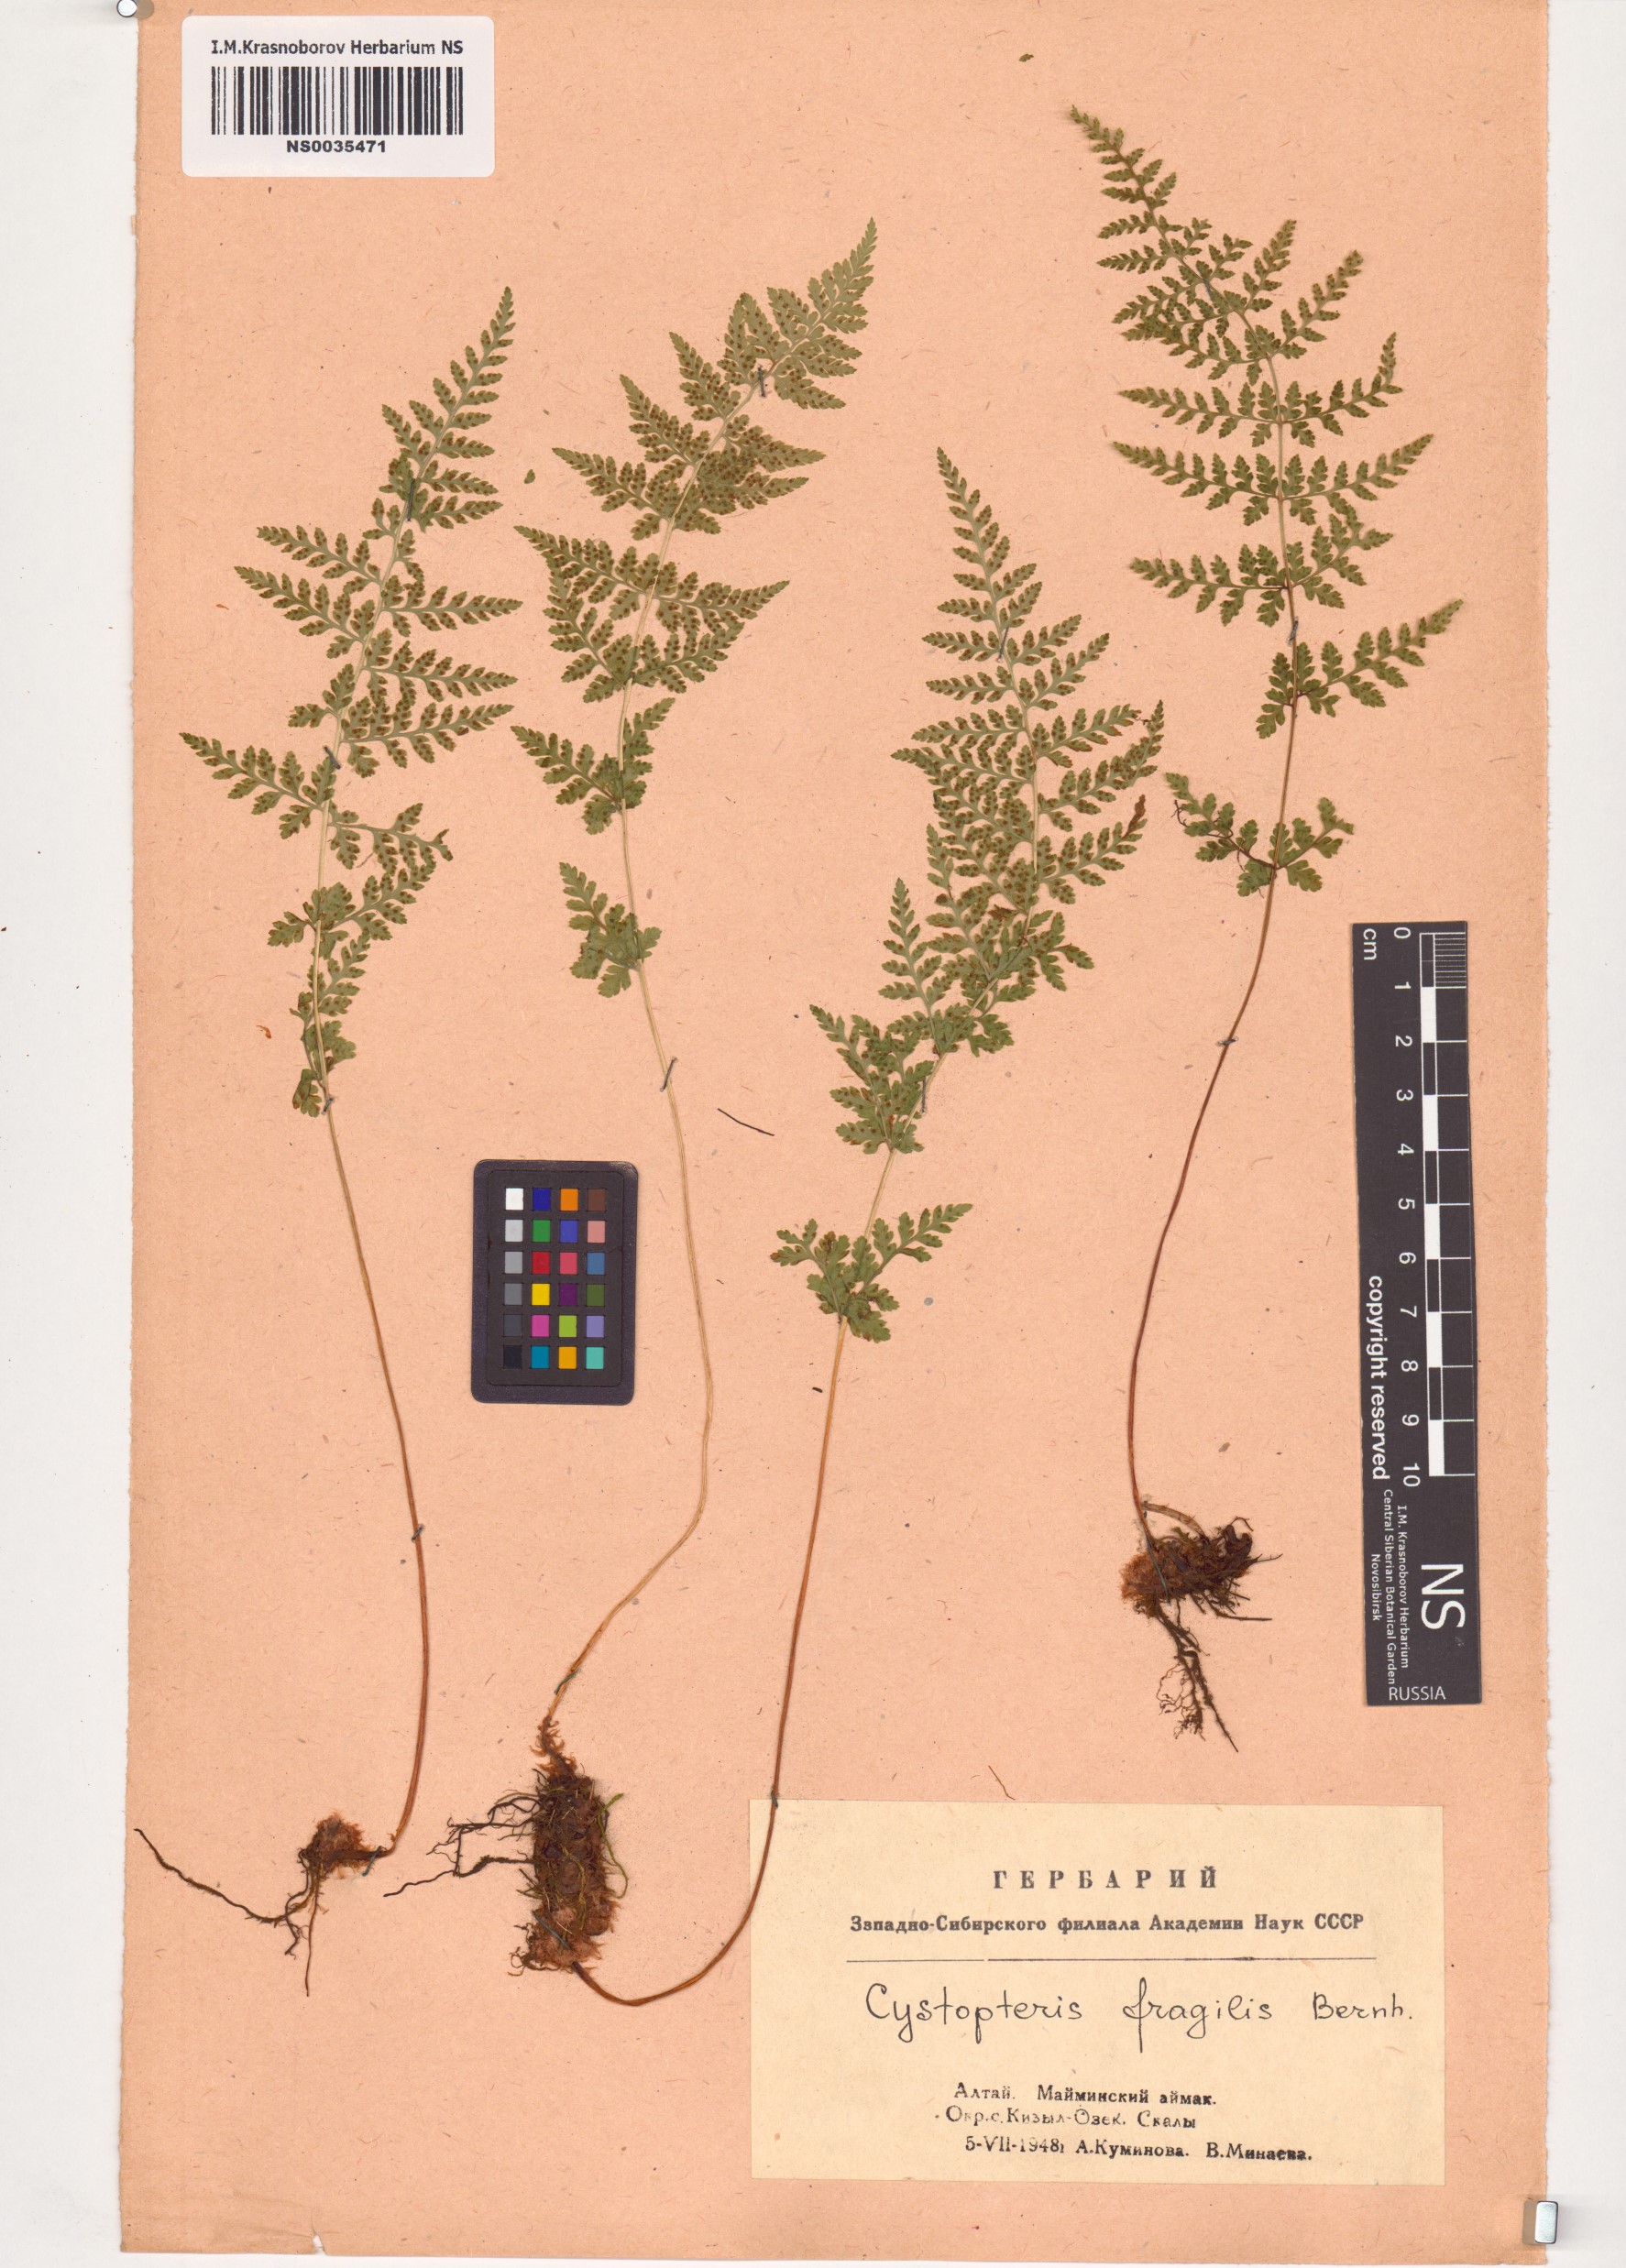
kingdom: Plantae
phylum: Tracheophyta
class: Polypodiopsida
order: Polypodiales
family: Cystopteridaceae
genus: Cystopteris
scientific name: Cystopteris fragilis
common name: Brittle bladder fern
